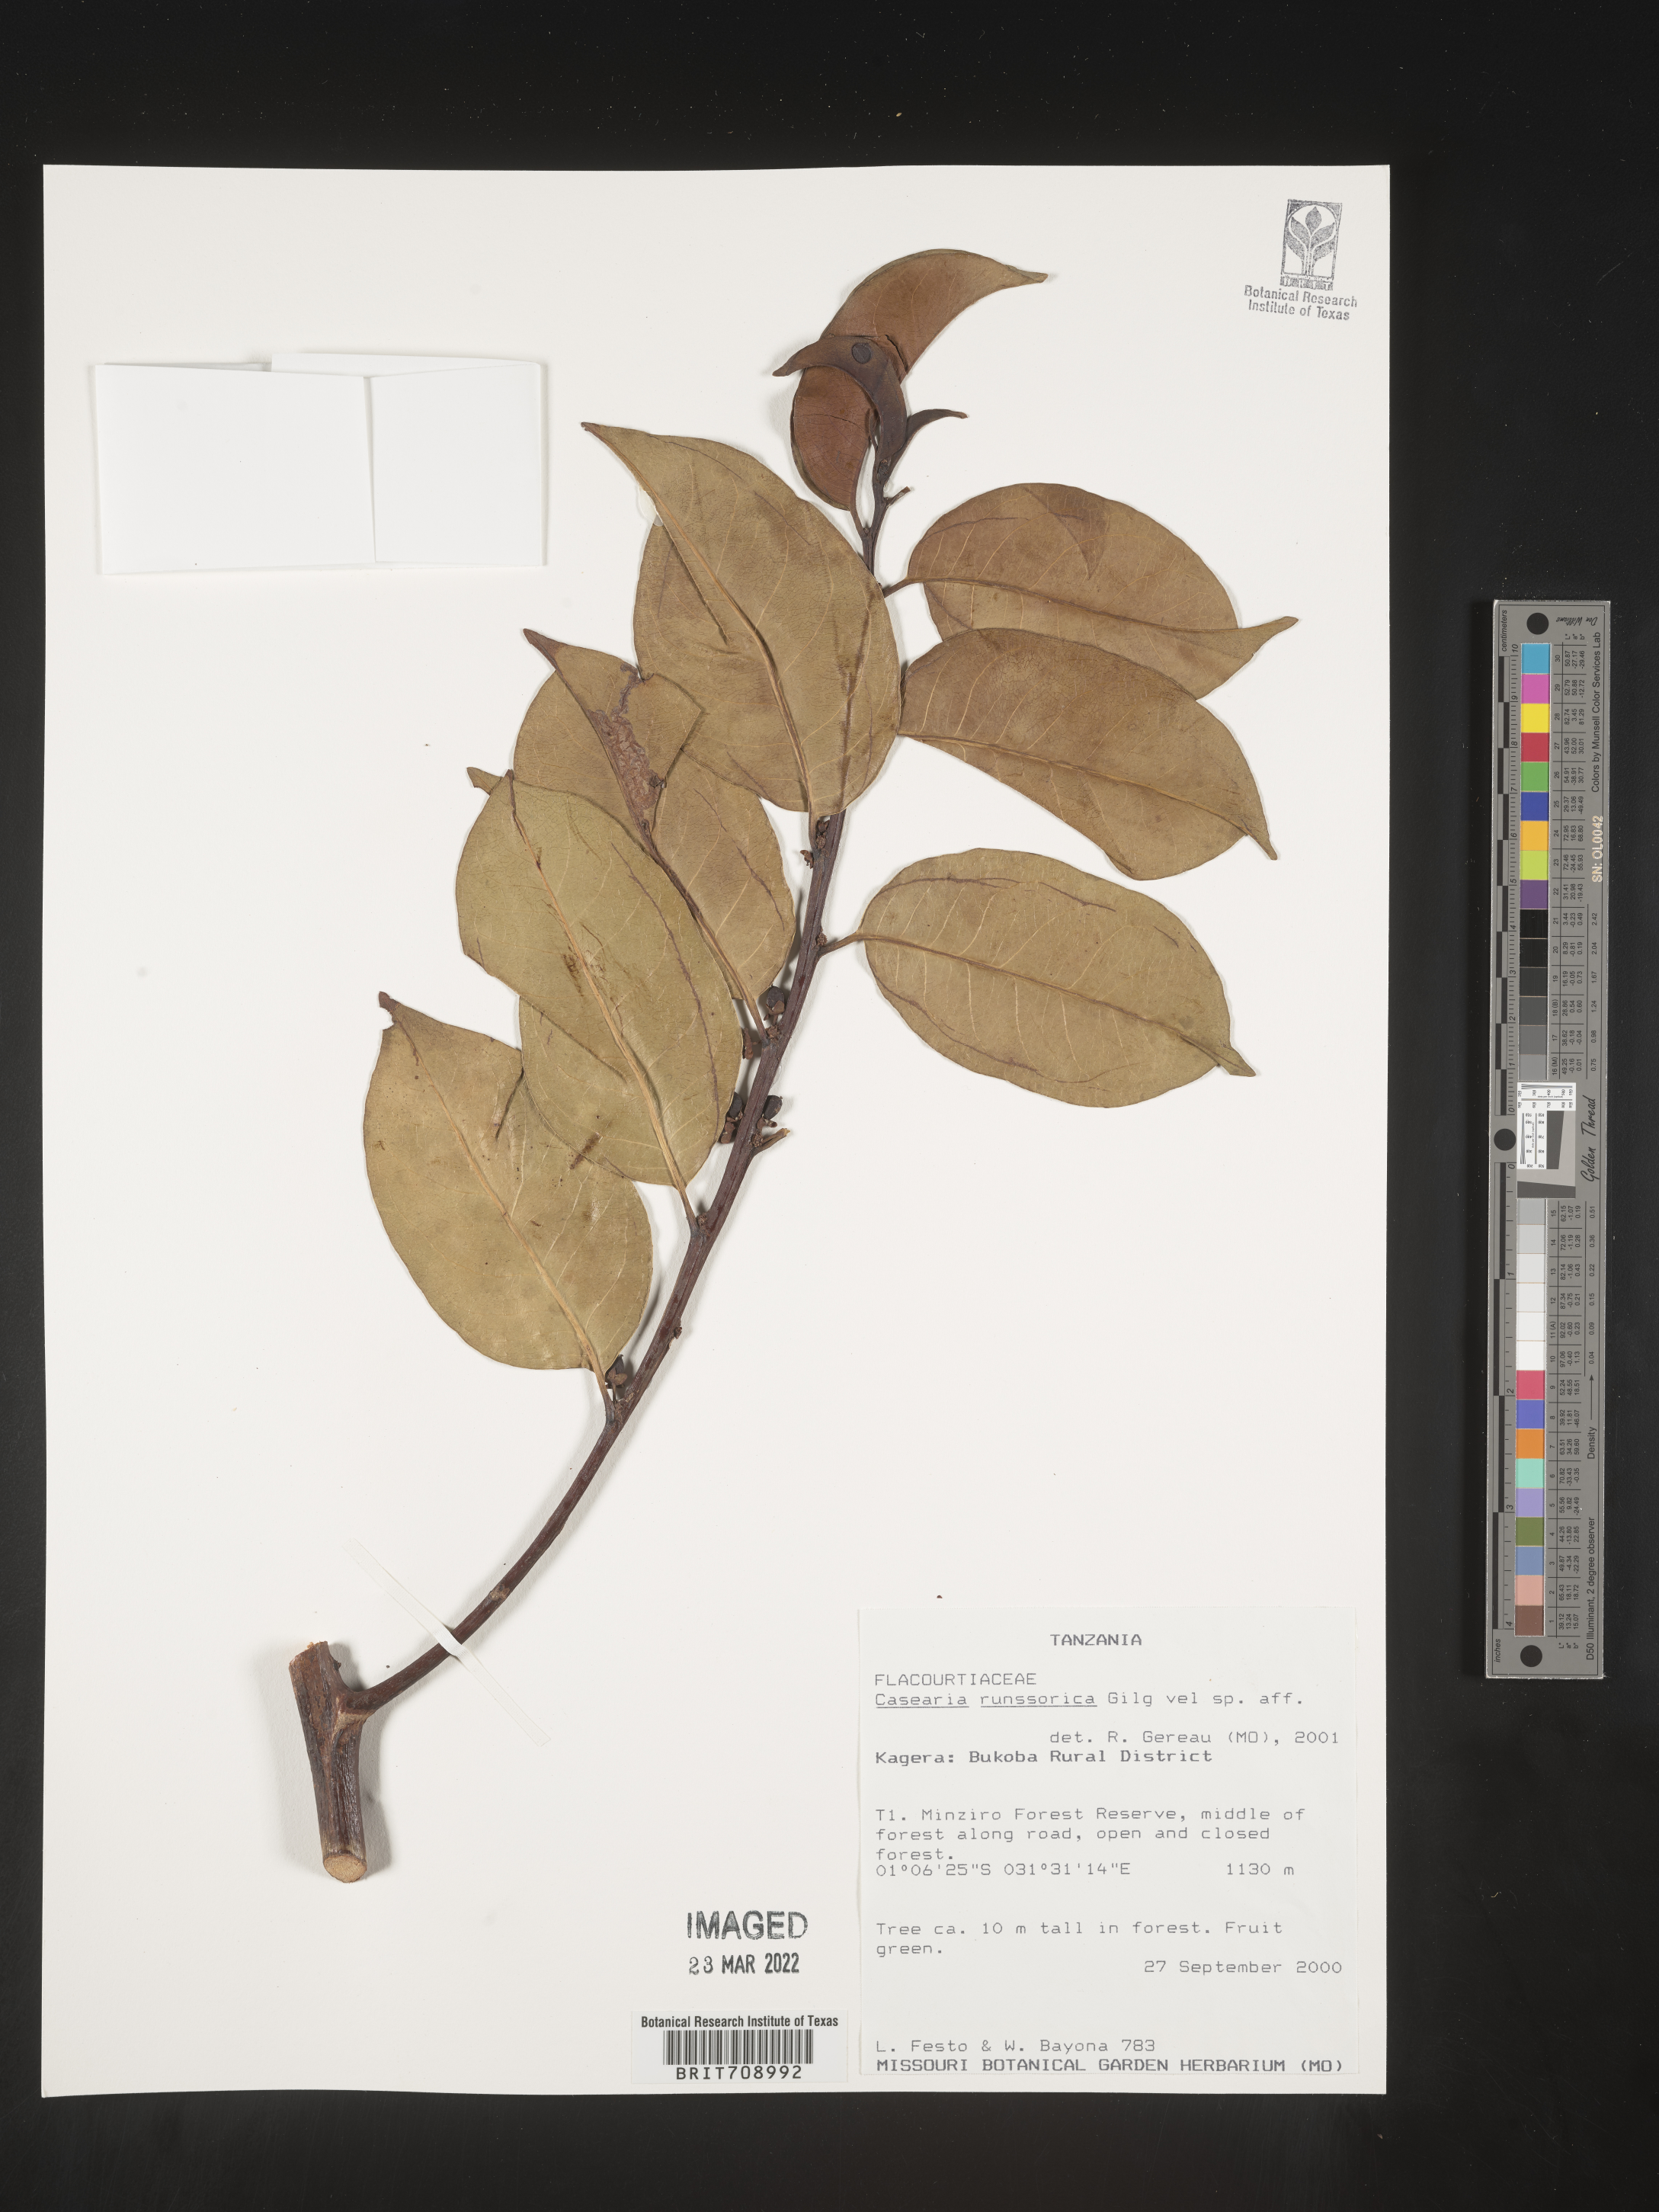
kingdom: Plantae
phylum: Tracheophyta
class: Magnoliopsida
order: Malpighiales
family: Salicaceae
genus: Casearia
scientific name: Casearia
